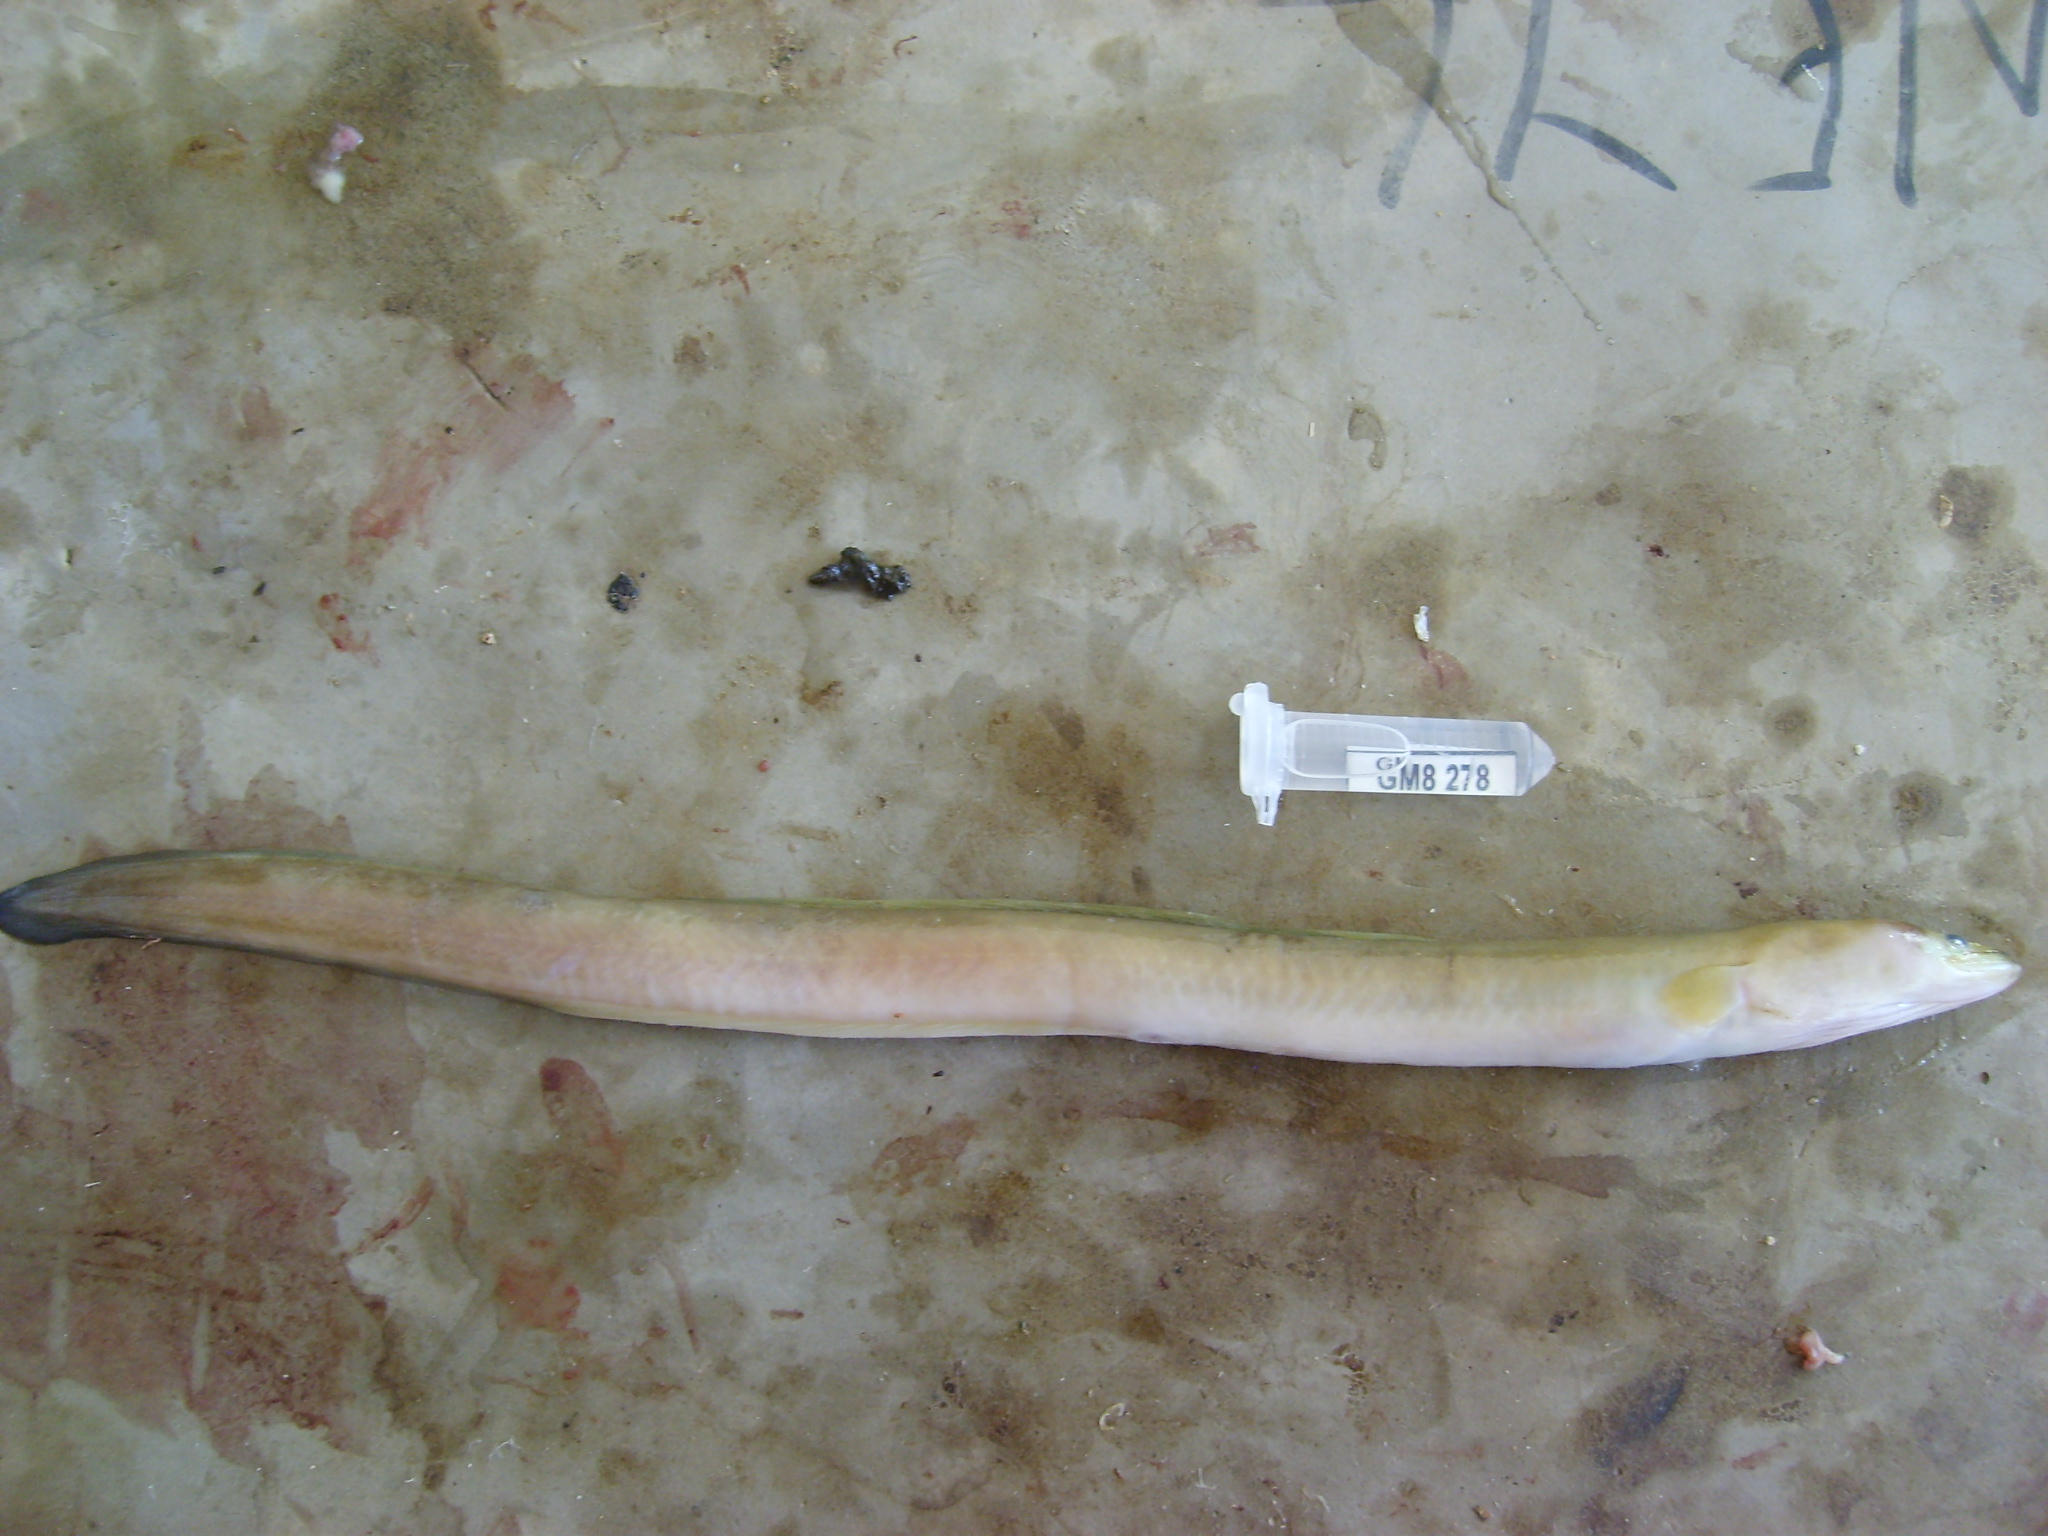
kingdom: Animalia
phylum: Chordata
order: Anguilliformes
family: Anguillidae
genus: Anguilla
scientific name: Anguilla mossambica
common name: African longfin eel
